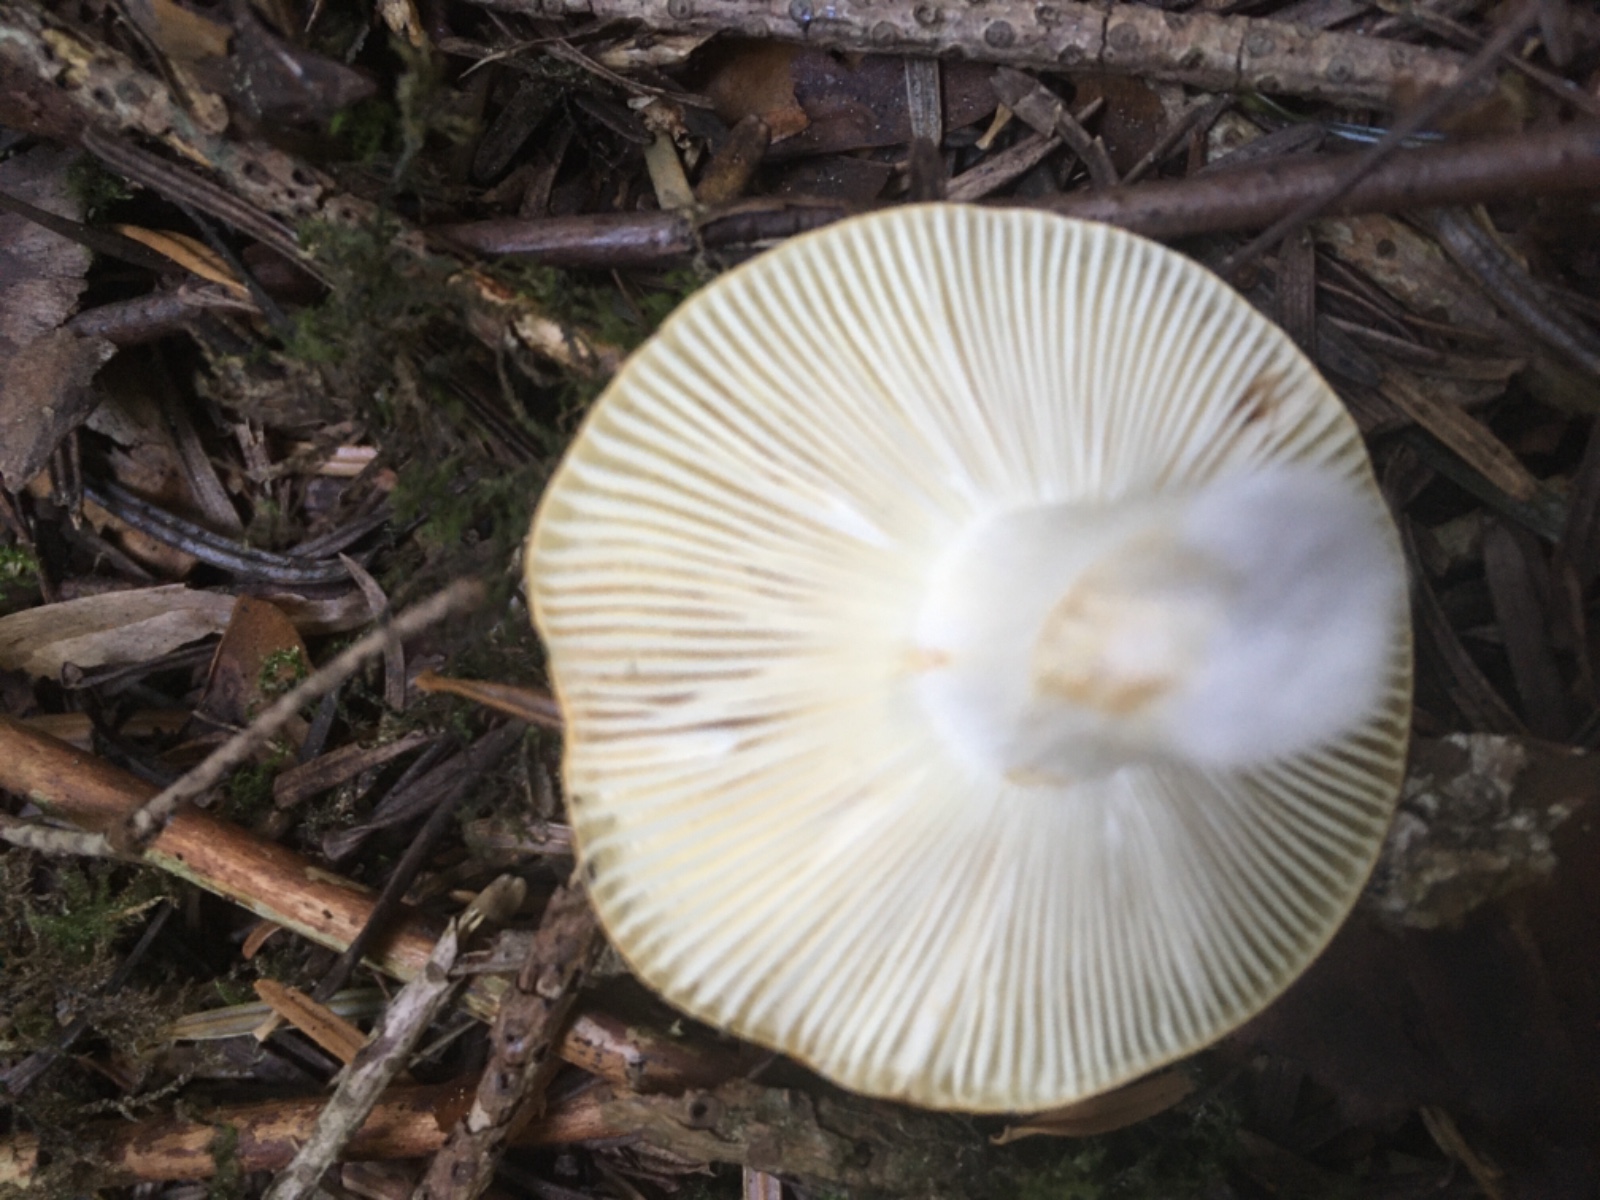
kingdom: Fungi
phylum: Basidiomycota
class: Agaricomycetes
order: Russulales
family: Russulaceae
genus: Russula
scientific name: Russula
